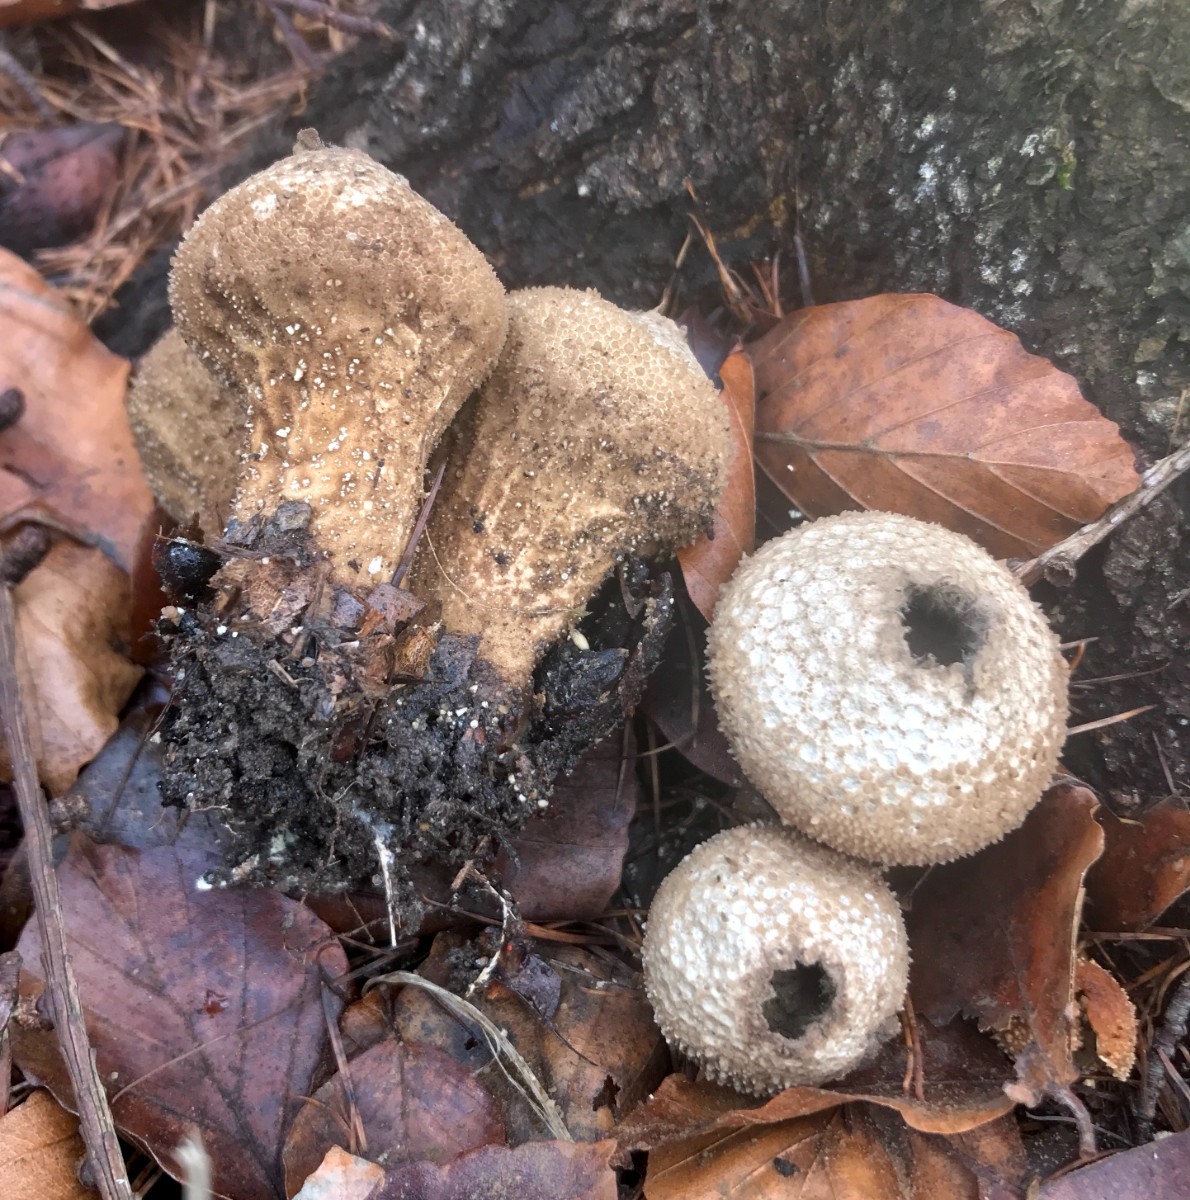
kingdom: Fungi
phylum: Basidiomycota
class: Agaricomycetes
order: Agaricales
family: Lycoperdaceae
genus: Lycoperdon
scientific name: Lycoperdon perlatum
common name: krystal-støvbold
